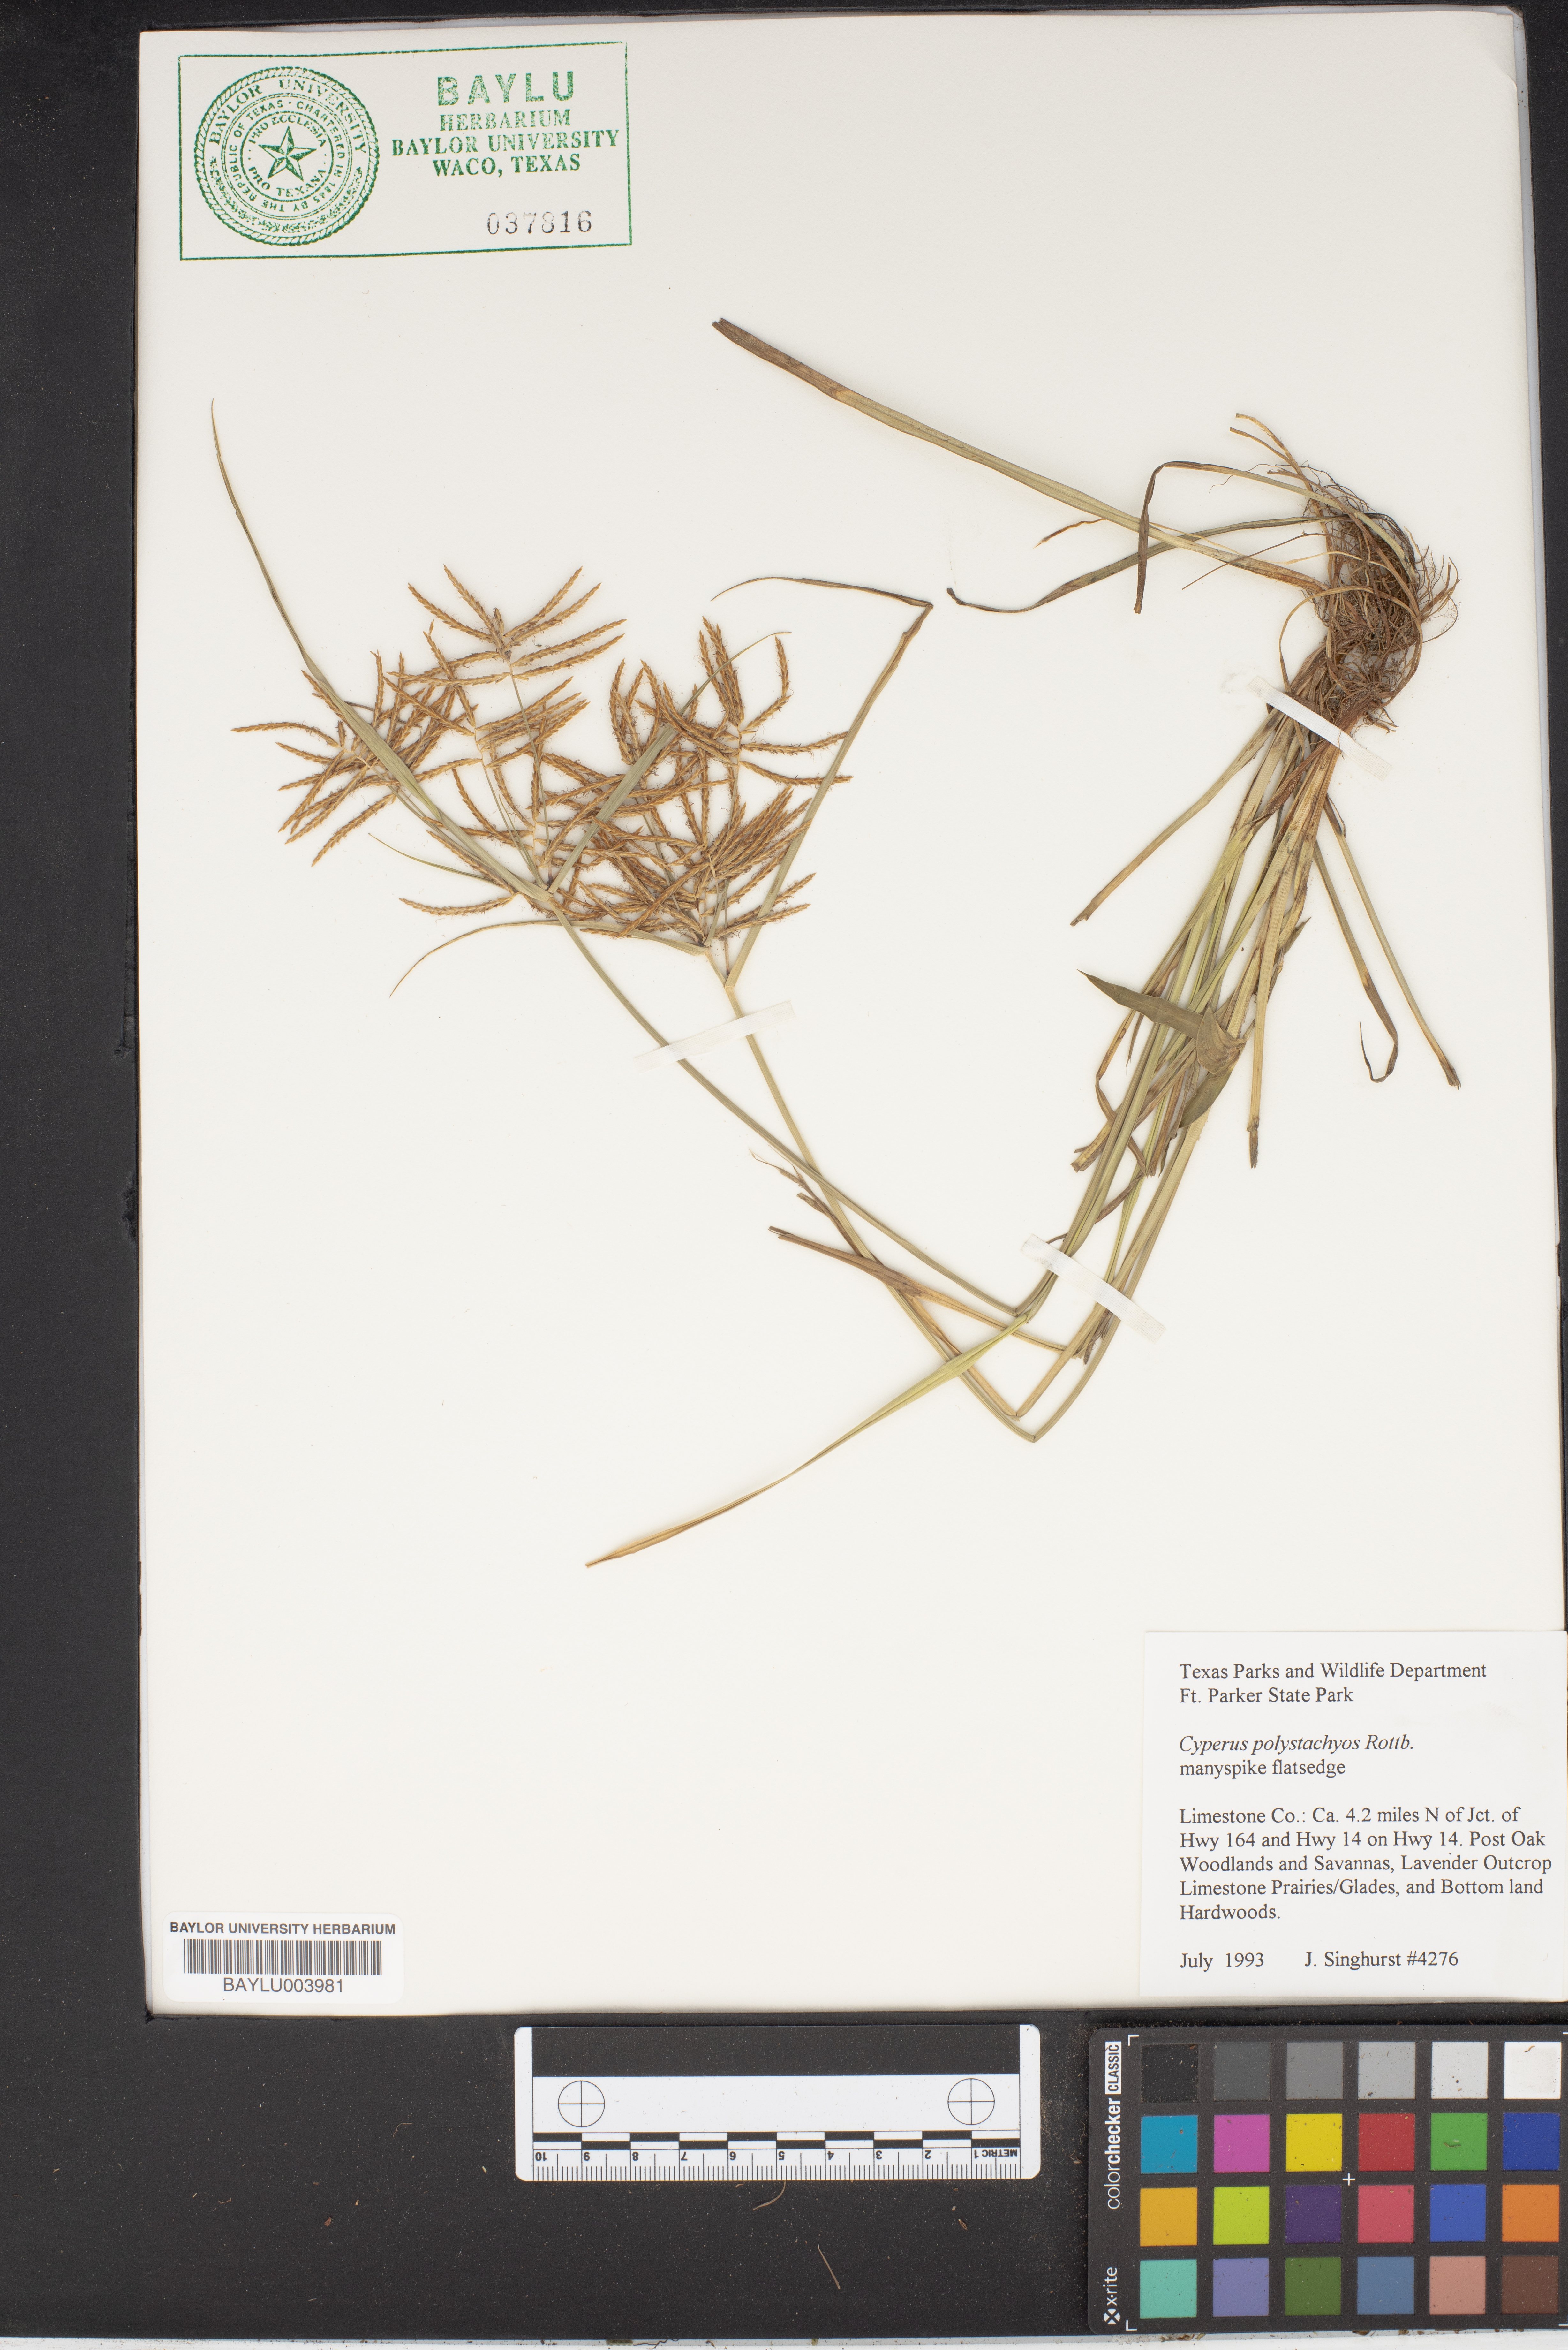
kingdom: Plantae
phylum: Tracheophyta
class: Liliopsida
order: Poales
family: Cyperaceae
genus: Cyperus
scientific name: Cyperus polystachyos
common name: Bunchy flat sedge
